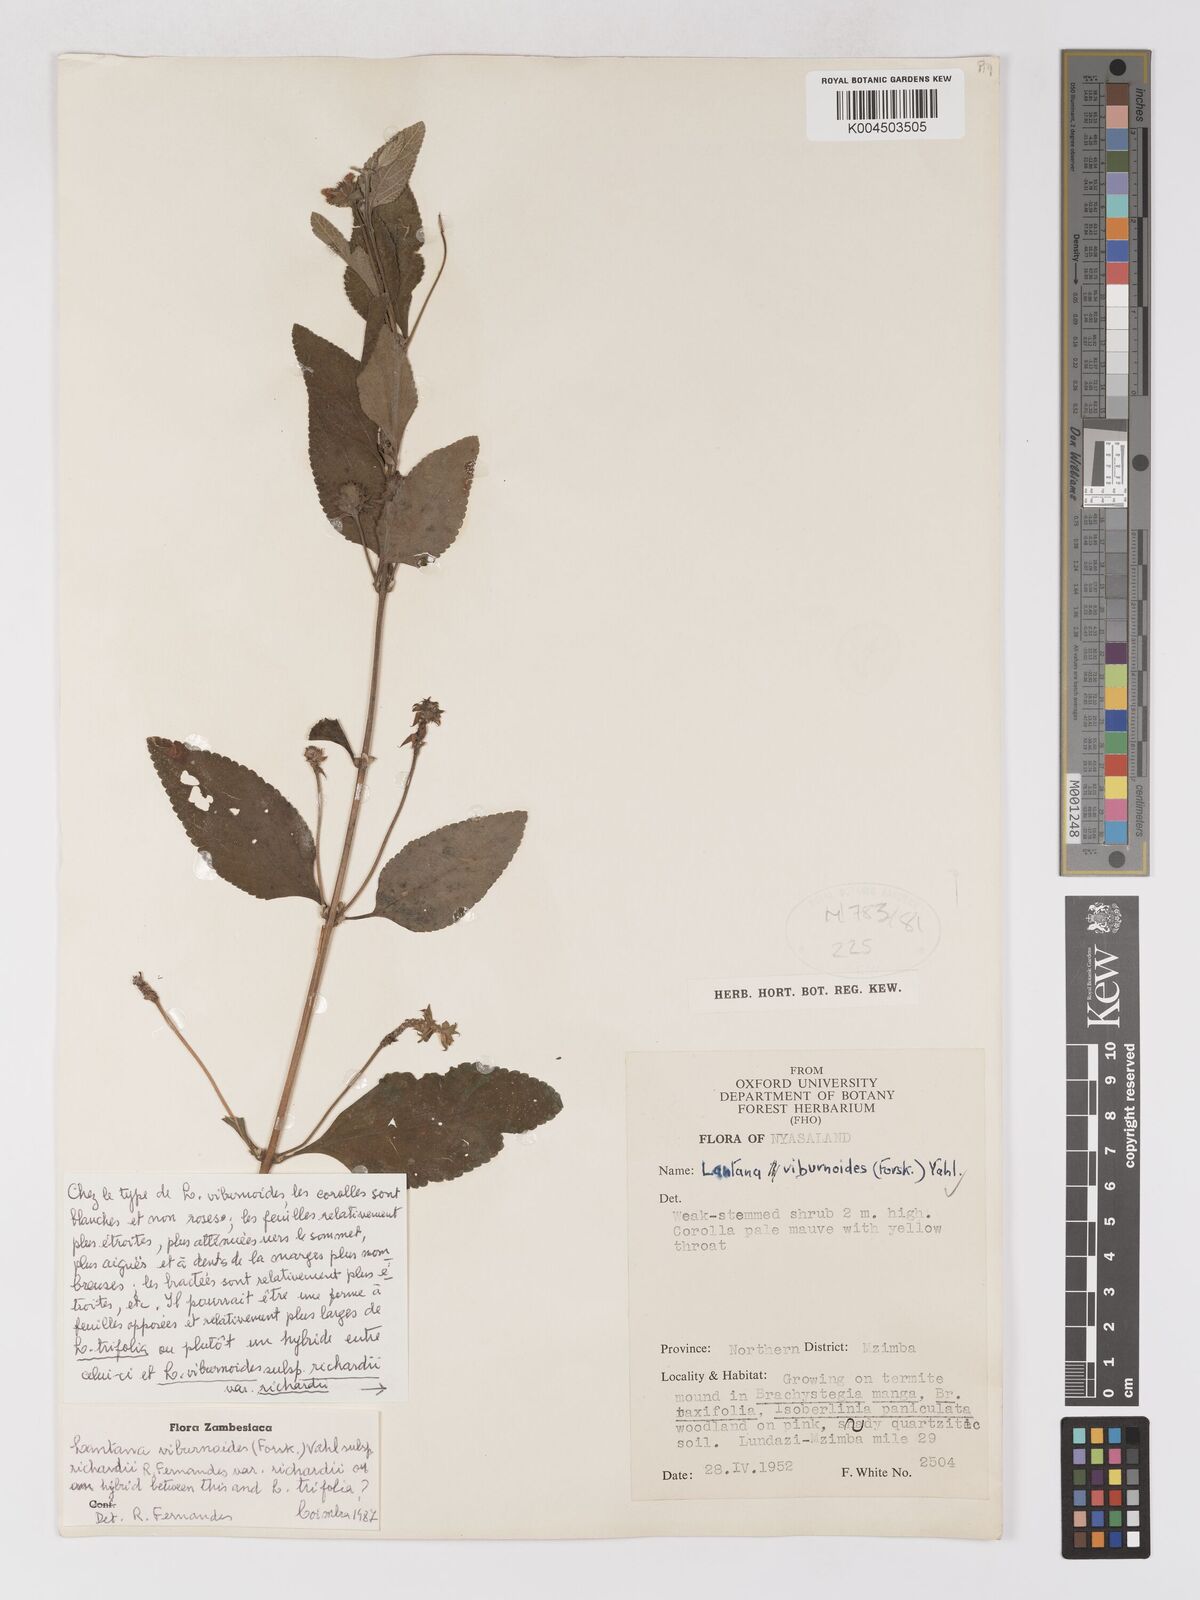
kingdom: Plantae
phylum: Tracheophyta
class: Magnoliopsida
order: Lamiales
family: Verbenaceae
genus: Lantana
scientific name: Lantana
